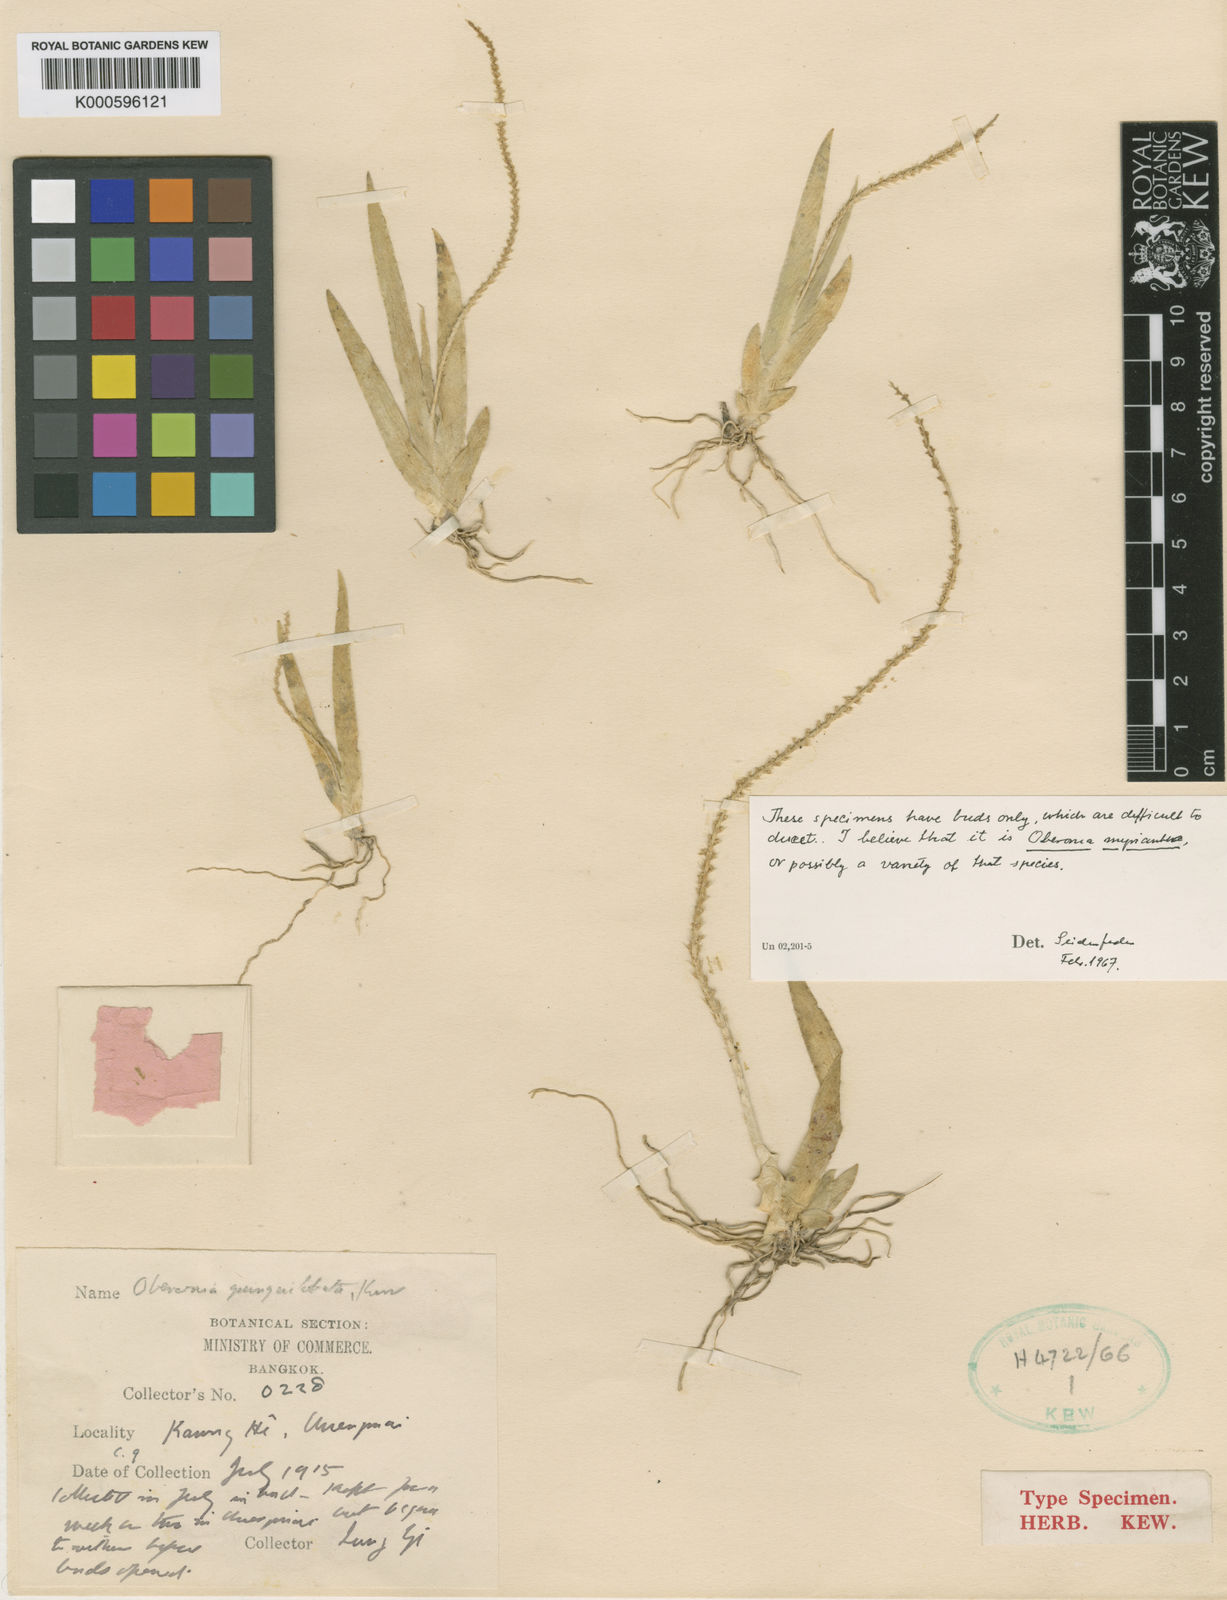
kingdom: Plantae
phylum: Tracheophyta
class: Liliopsida
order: Asparagales
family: Orchidaceae
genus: Oberonia
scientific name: Oberonia
